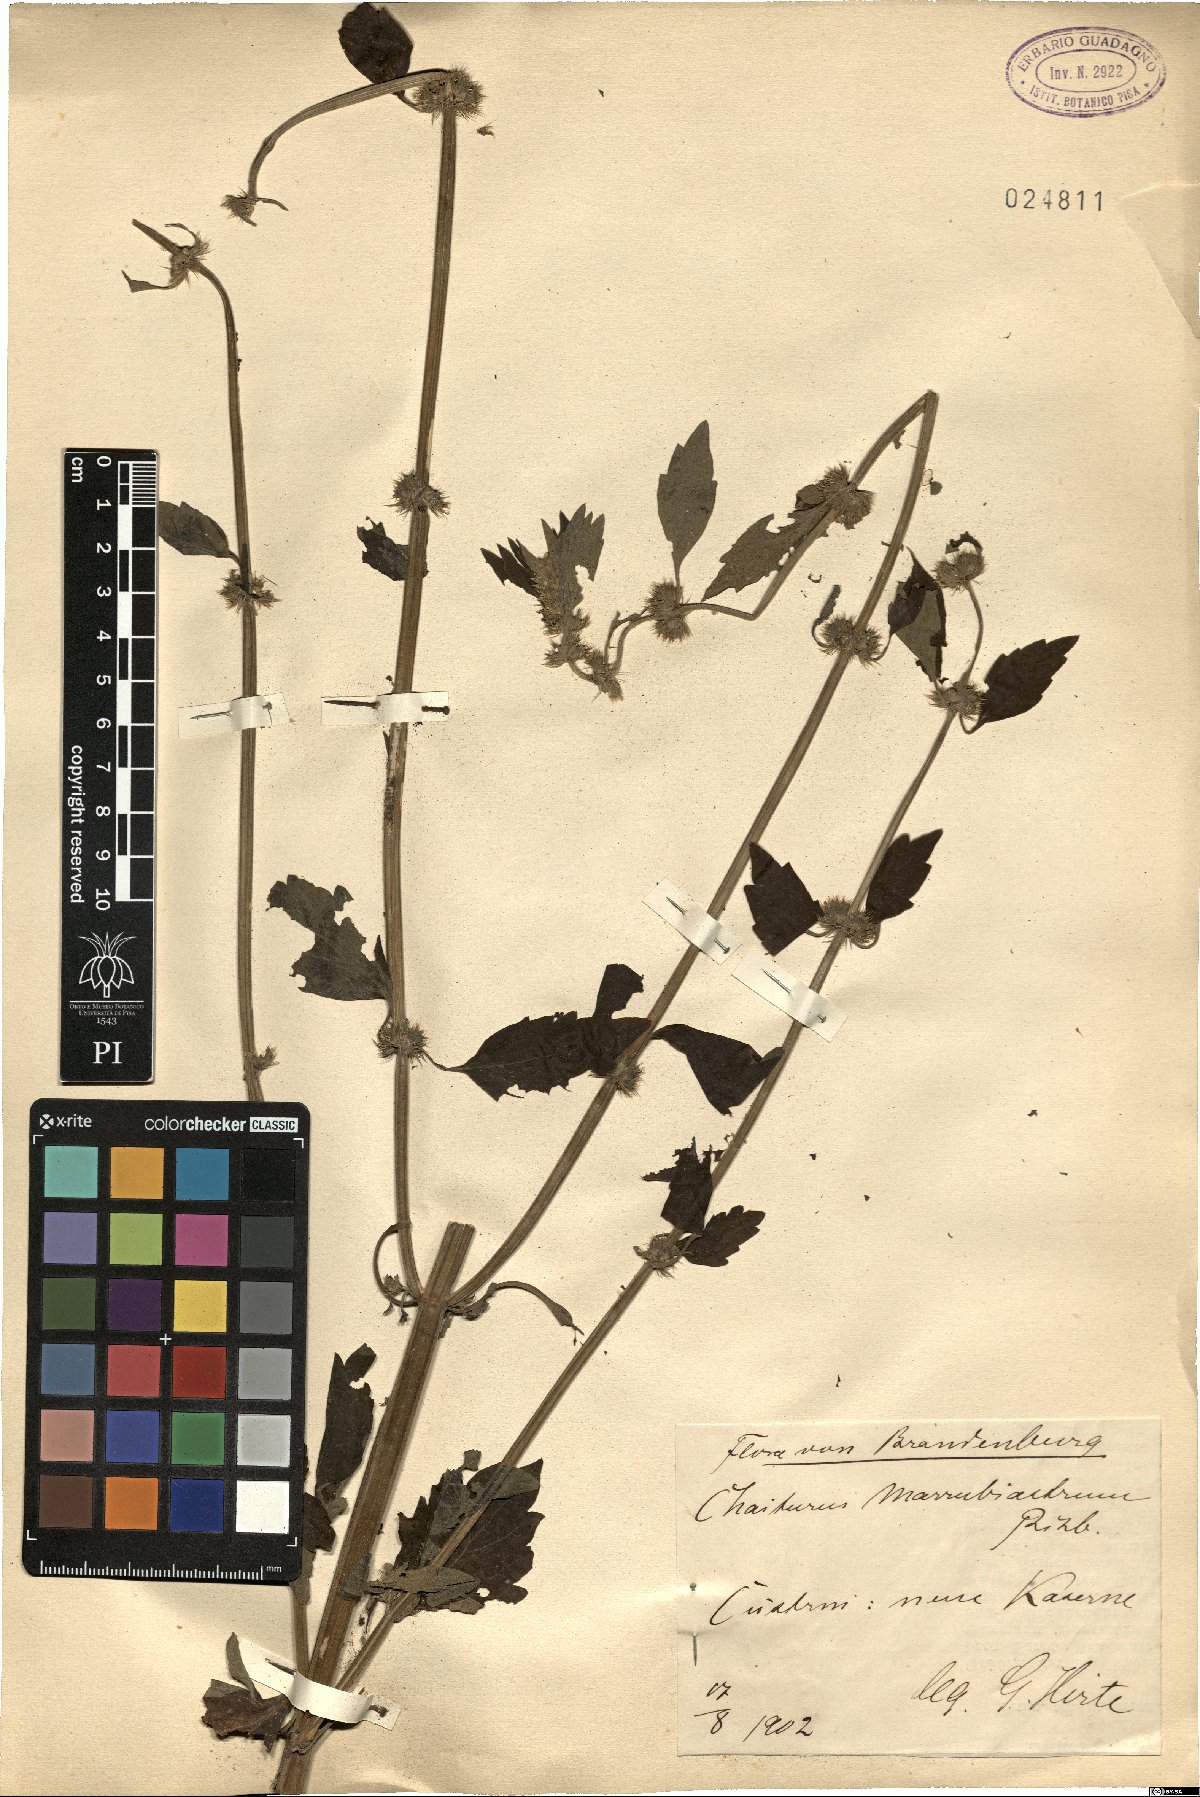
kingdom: Plantae
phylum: Tracheophyta
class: Magnoliopsida
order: Lamiales
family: Lamiaceae
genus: Chaiturus
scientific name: Chaiturus marrubiastrum
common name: Lion's tail
